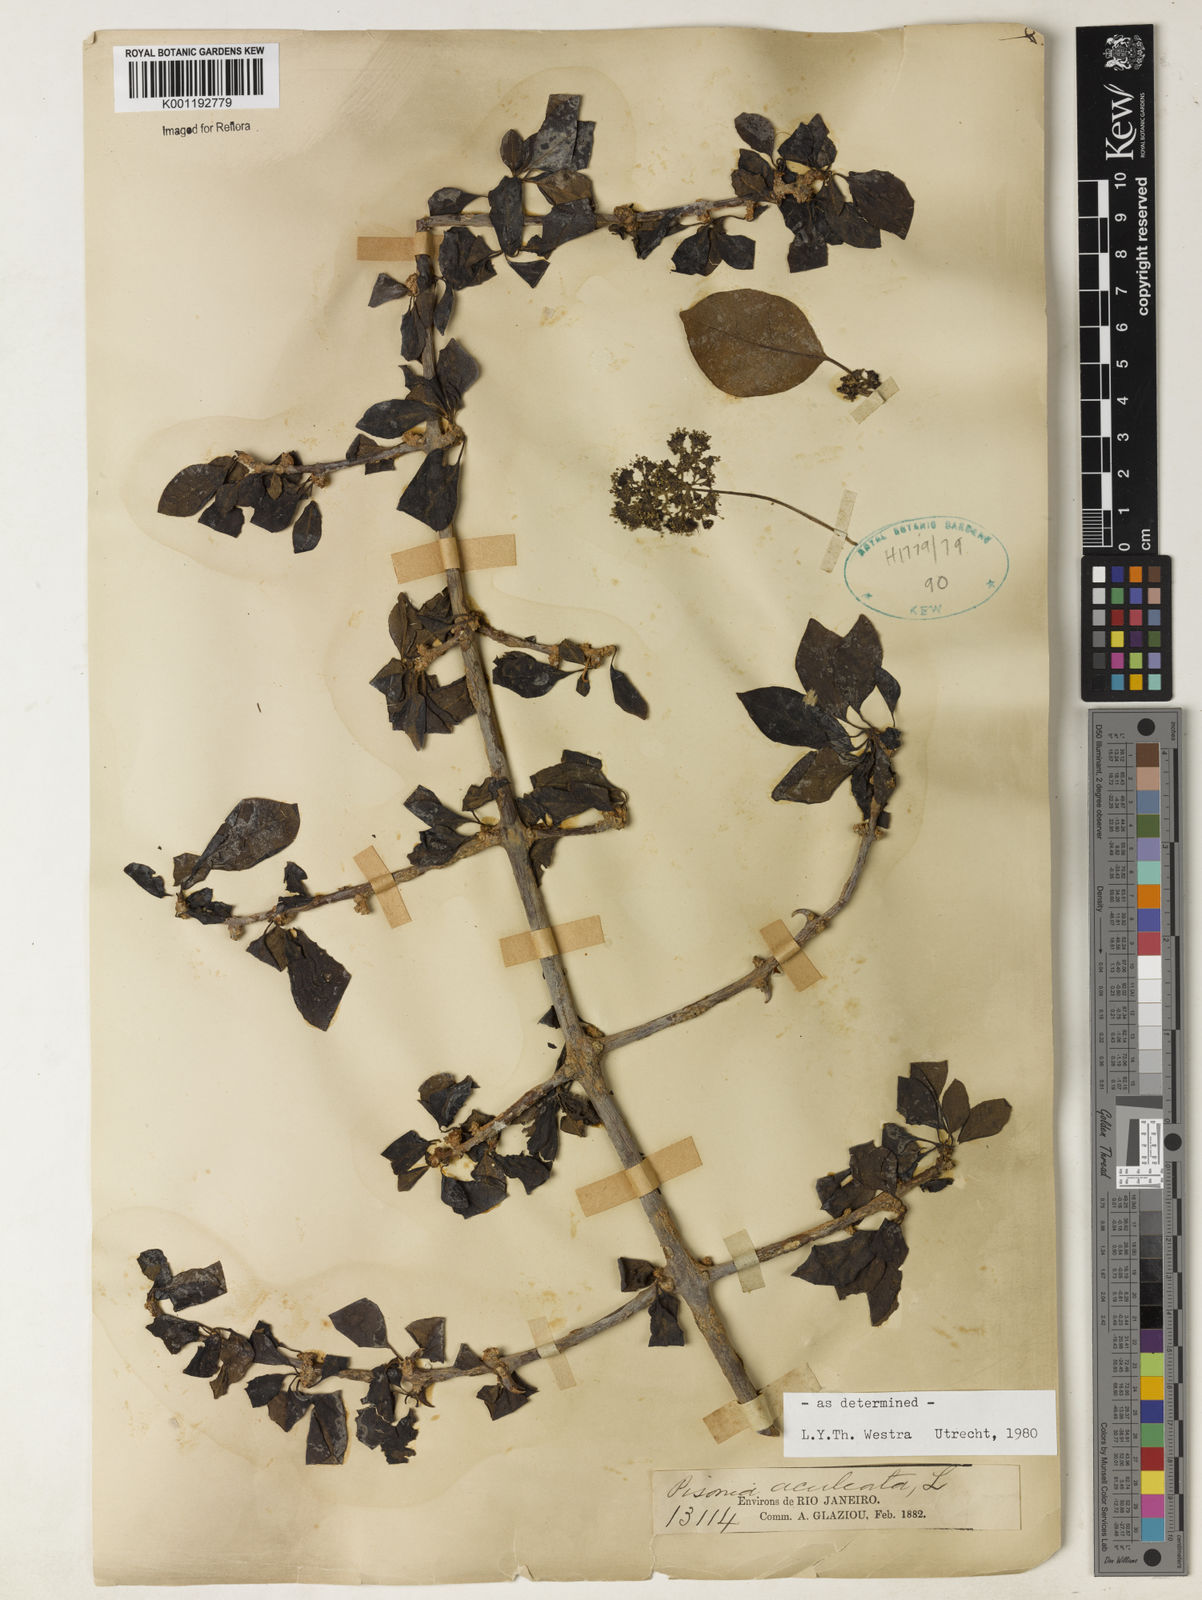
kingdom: Plantae
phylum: Tracheophyta
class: Magnoliopsida
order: Caryophyllales
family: Nyctaginaceae
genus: Pisonia
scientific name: Pisonia aculeata
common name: Cockspur vine
